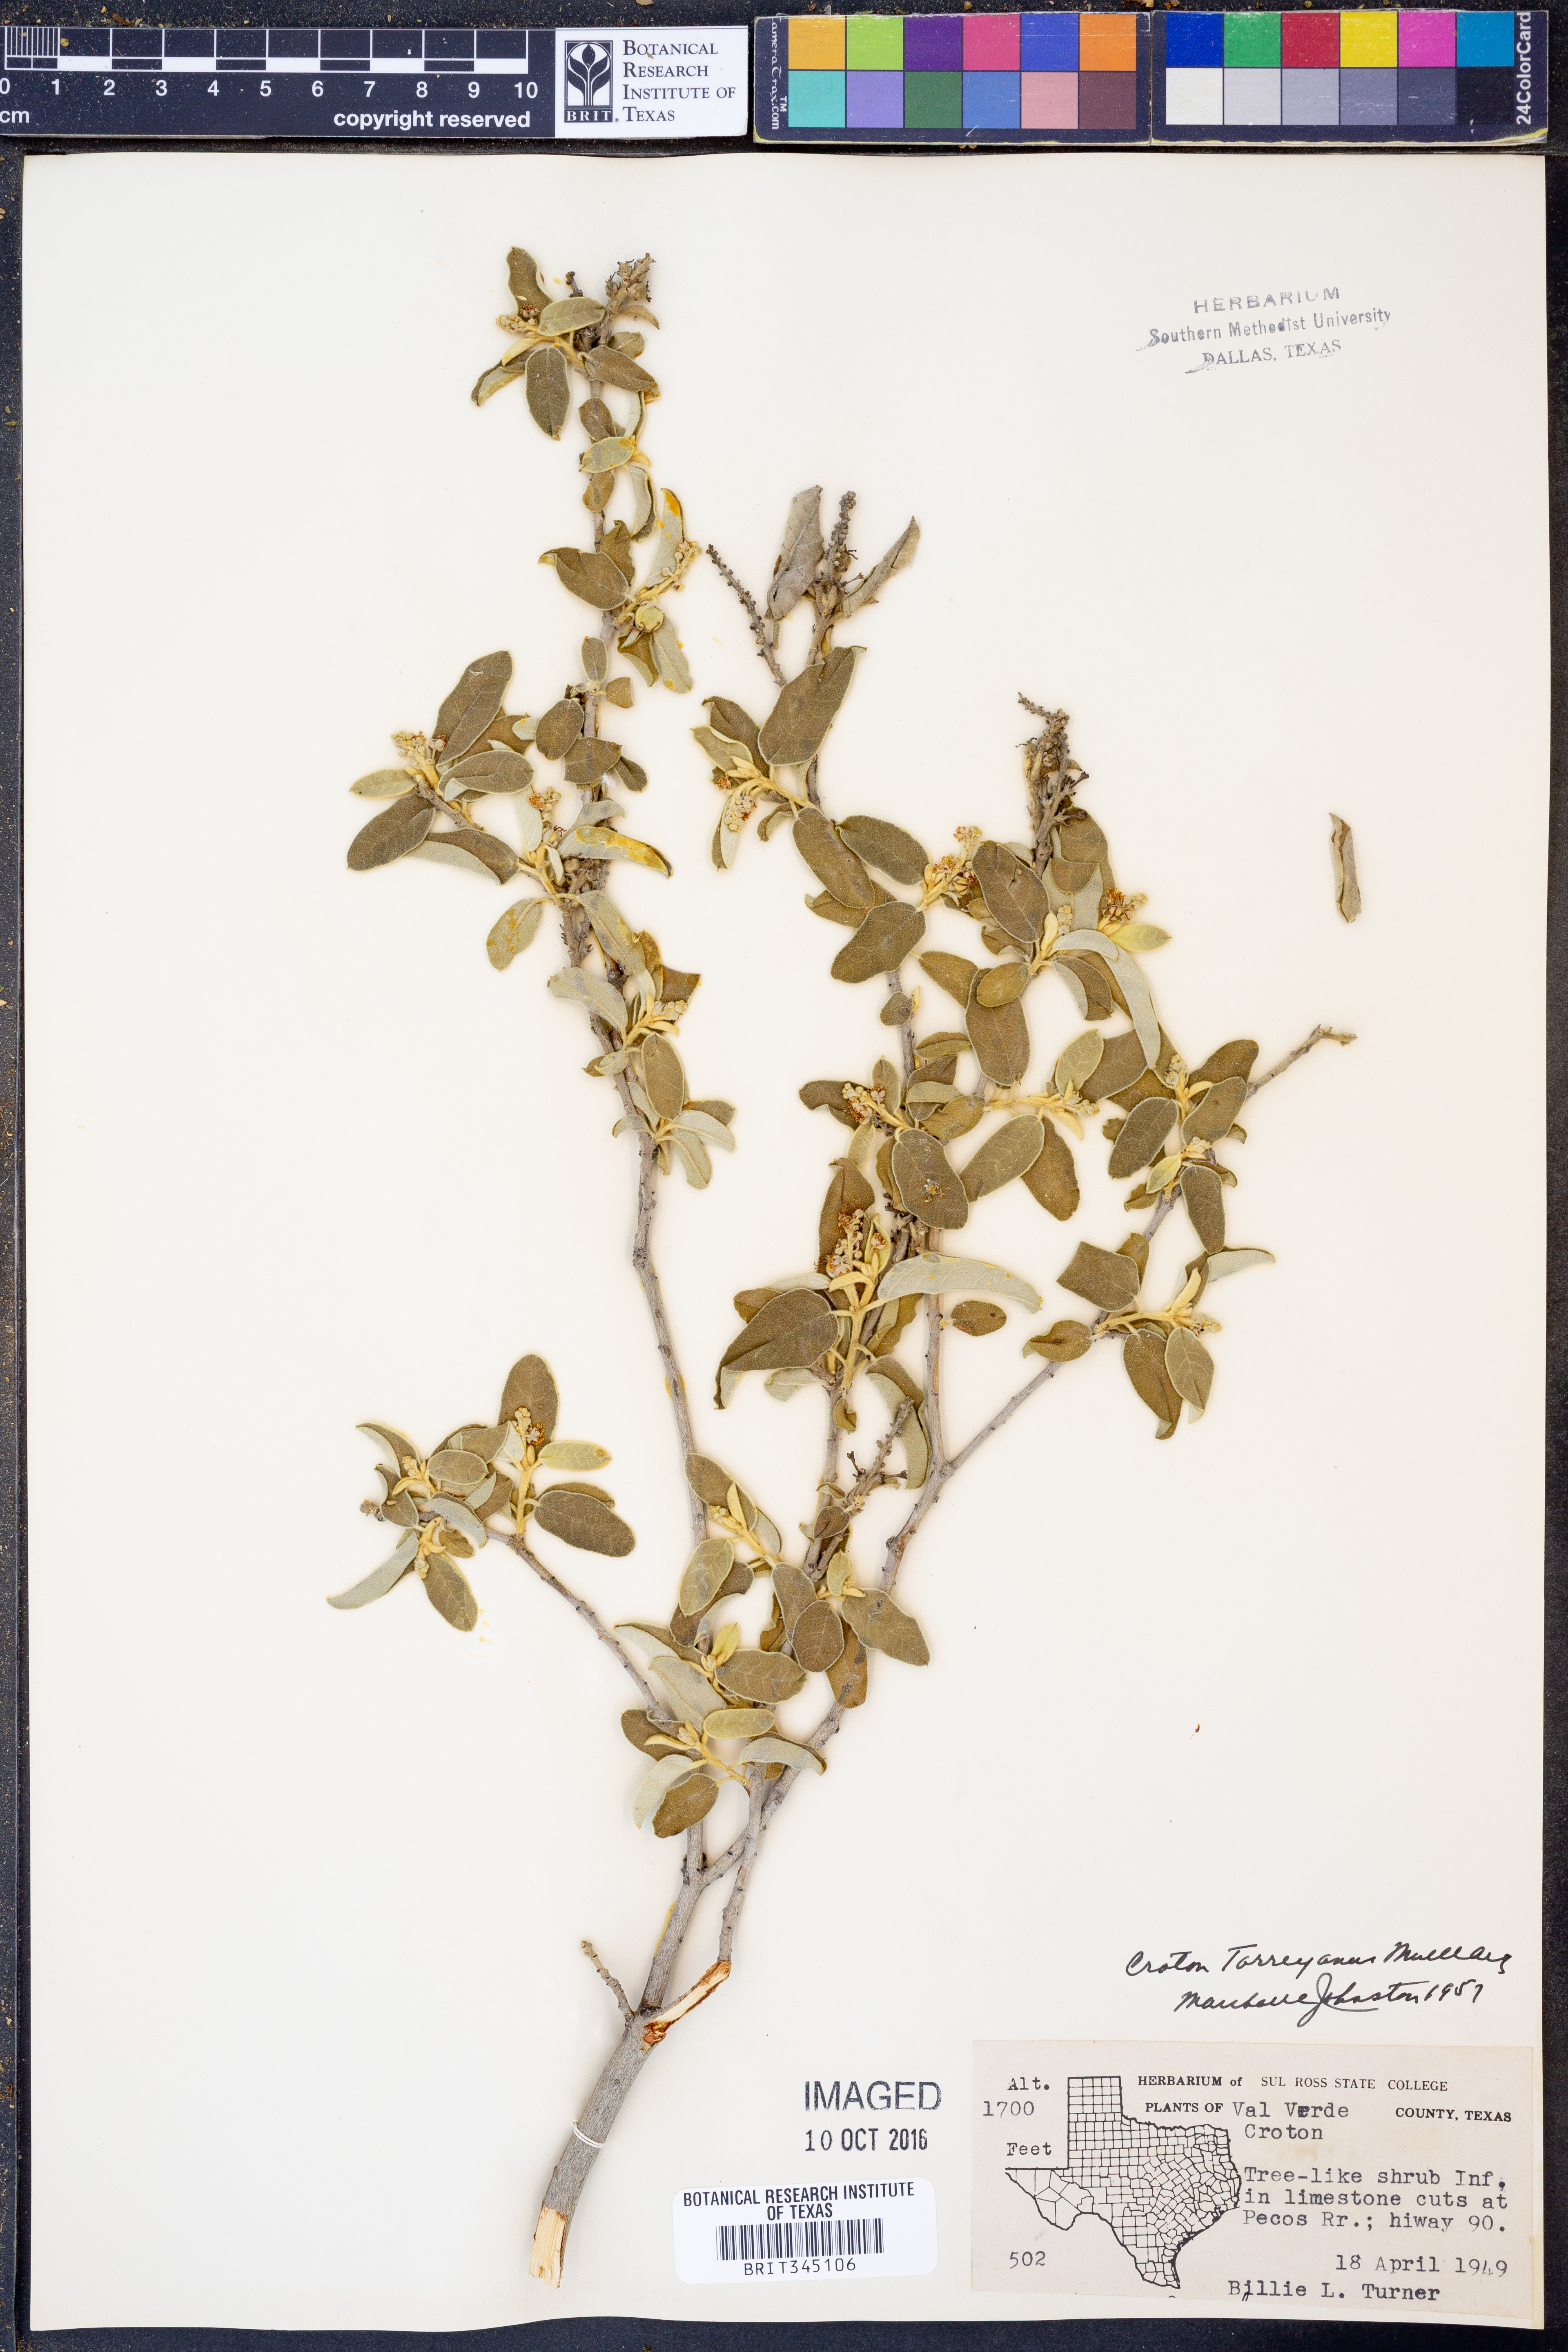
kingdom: Plantae
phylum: Tracheophyta
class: Magnoliopsida
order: Malpighiales
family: Euphorbiaceae
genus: Croton
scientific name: Croton incanus
